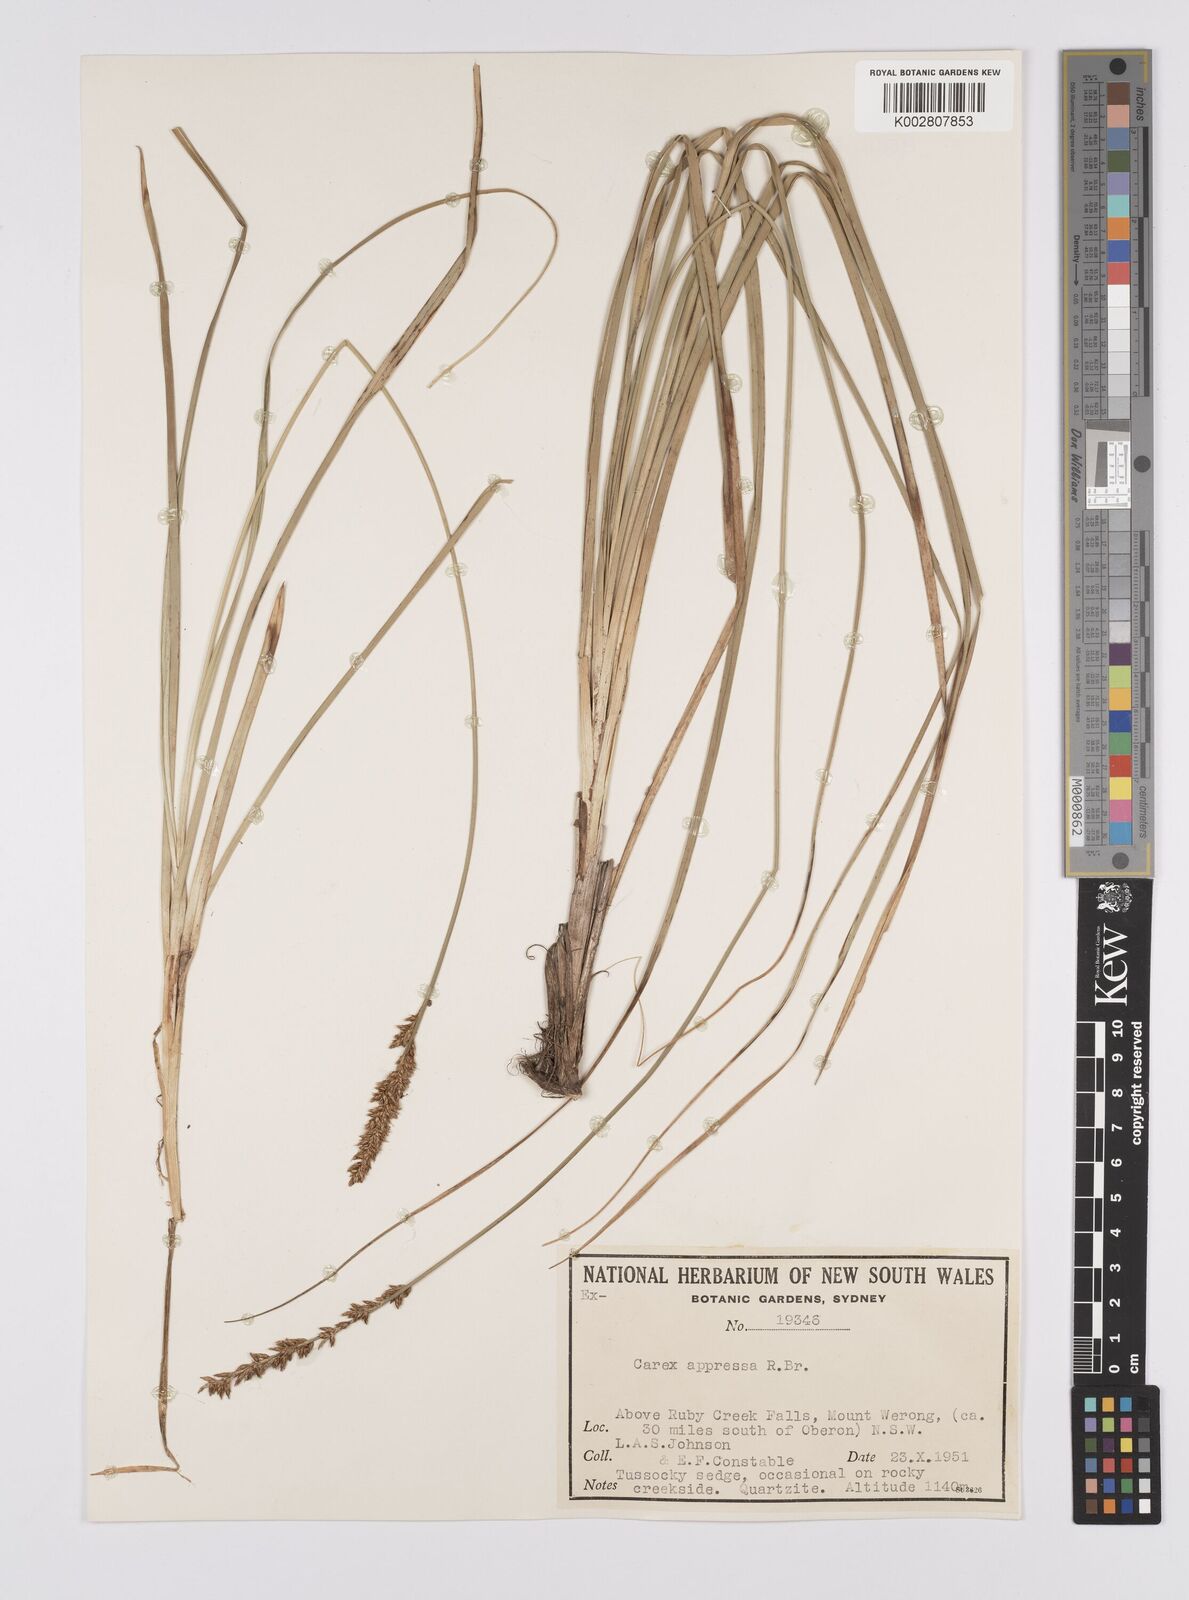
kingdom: Plantae
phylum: Tracheophyta
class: Liliopsida
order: Poales
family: Cyperaceae
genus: Carex
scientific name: Carex appressa
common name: Tussock sedge
